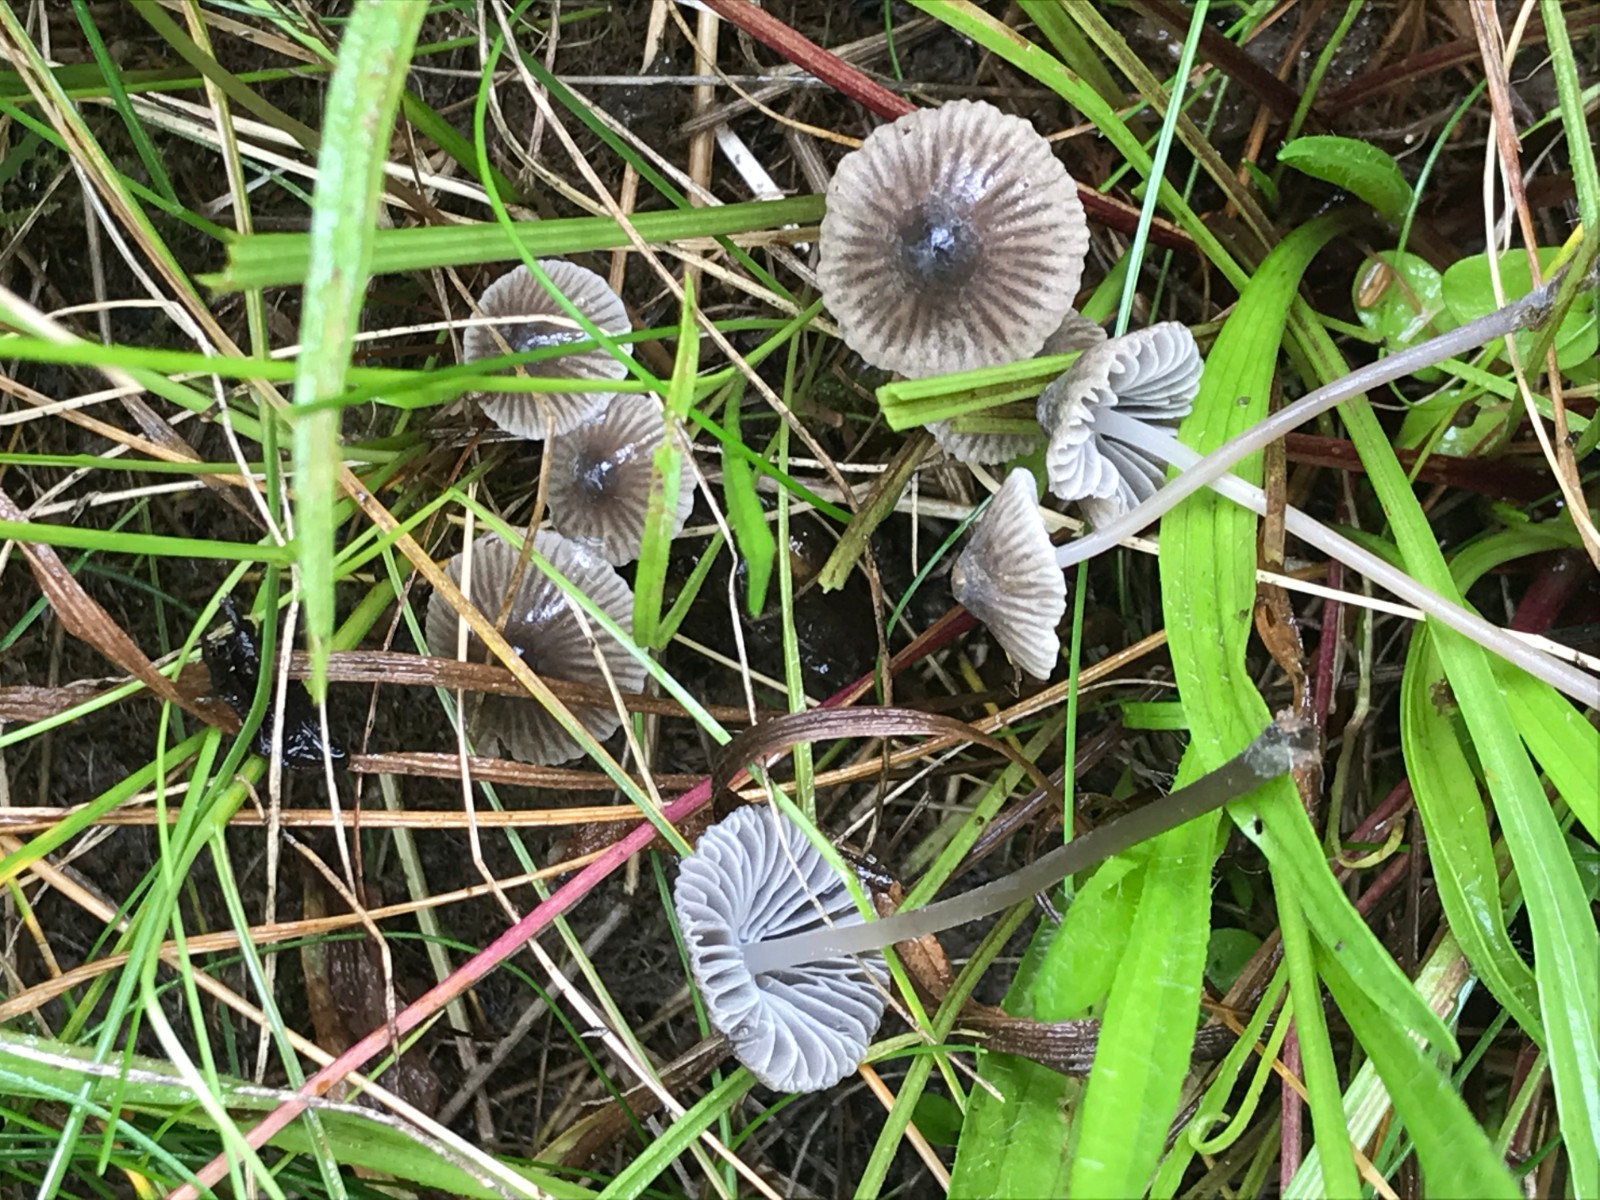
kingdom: Fungi
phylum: Basidiomycota
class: Agaricomycetes
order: Agaricales
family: Mycenaceae
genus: Mycena
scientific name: Mycena aetites
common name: plæne-huesvamp
